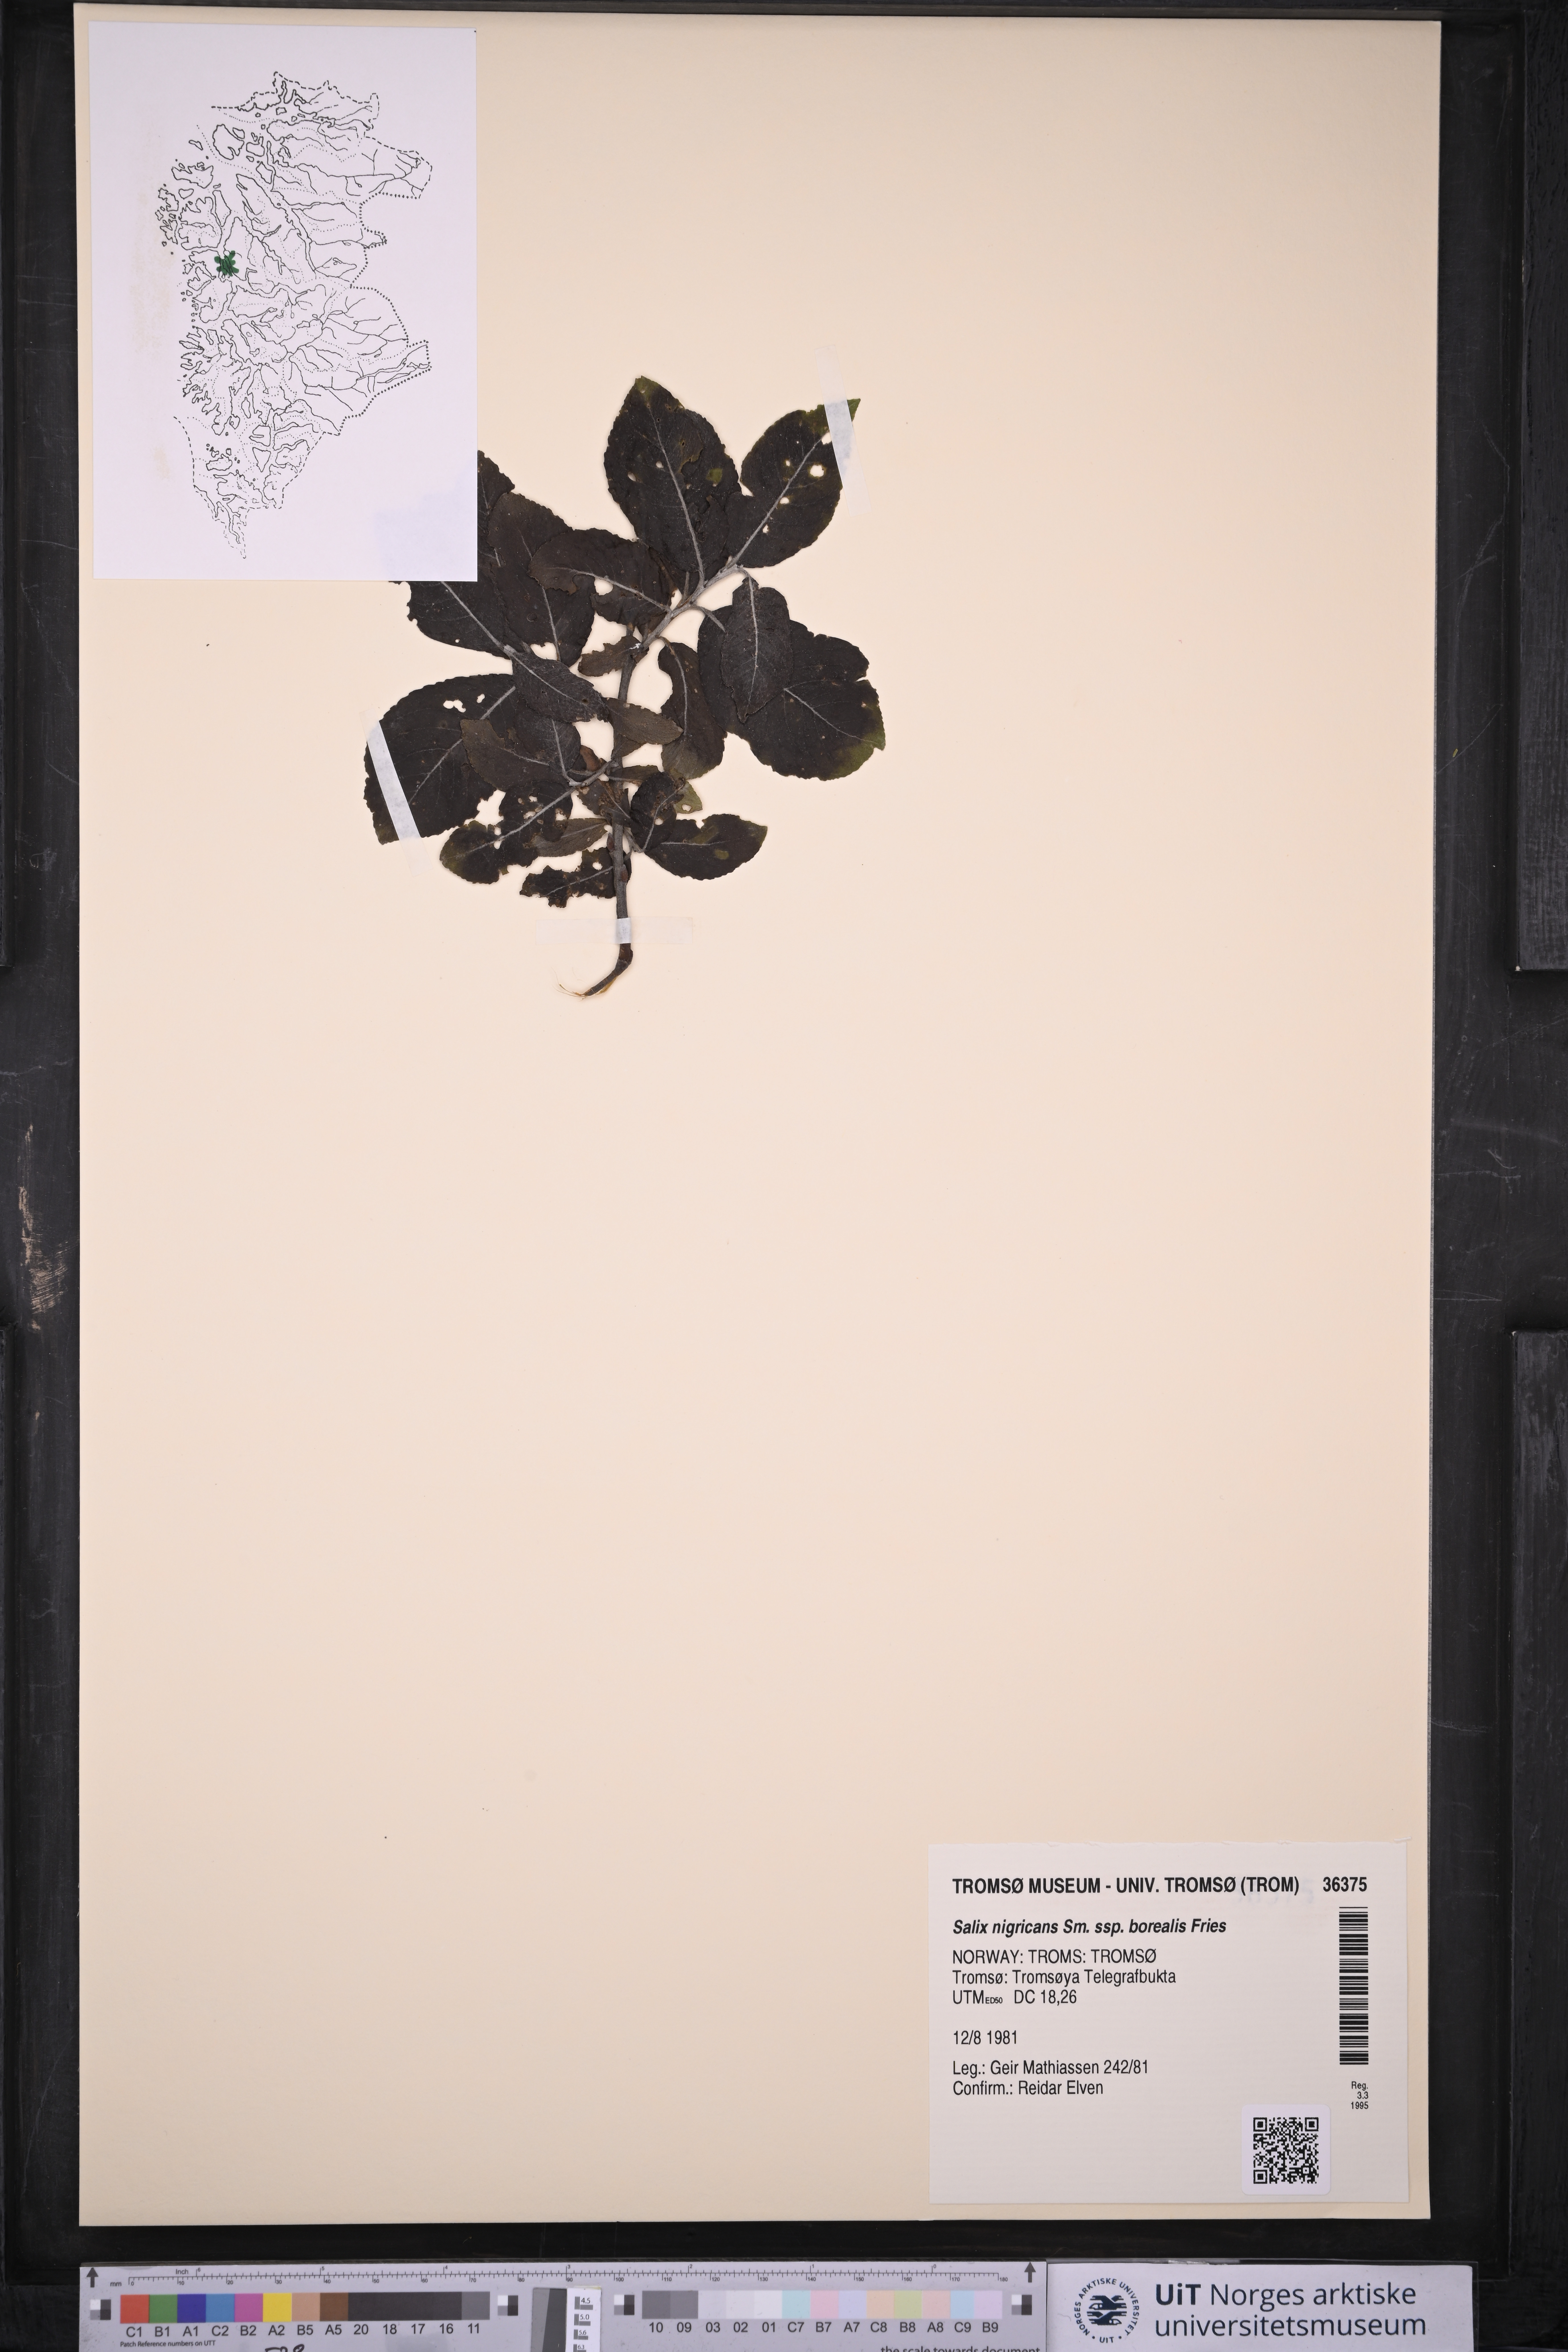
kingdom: Plantae
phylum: Tracheophyta
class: Magnoliopsida
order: Malpighiales
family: Salicaceae
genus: Salix
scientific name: Salix myrsinifolia
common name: Dark-leaved willow
